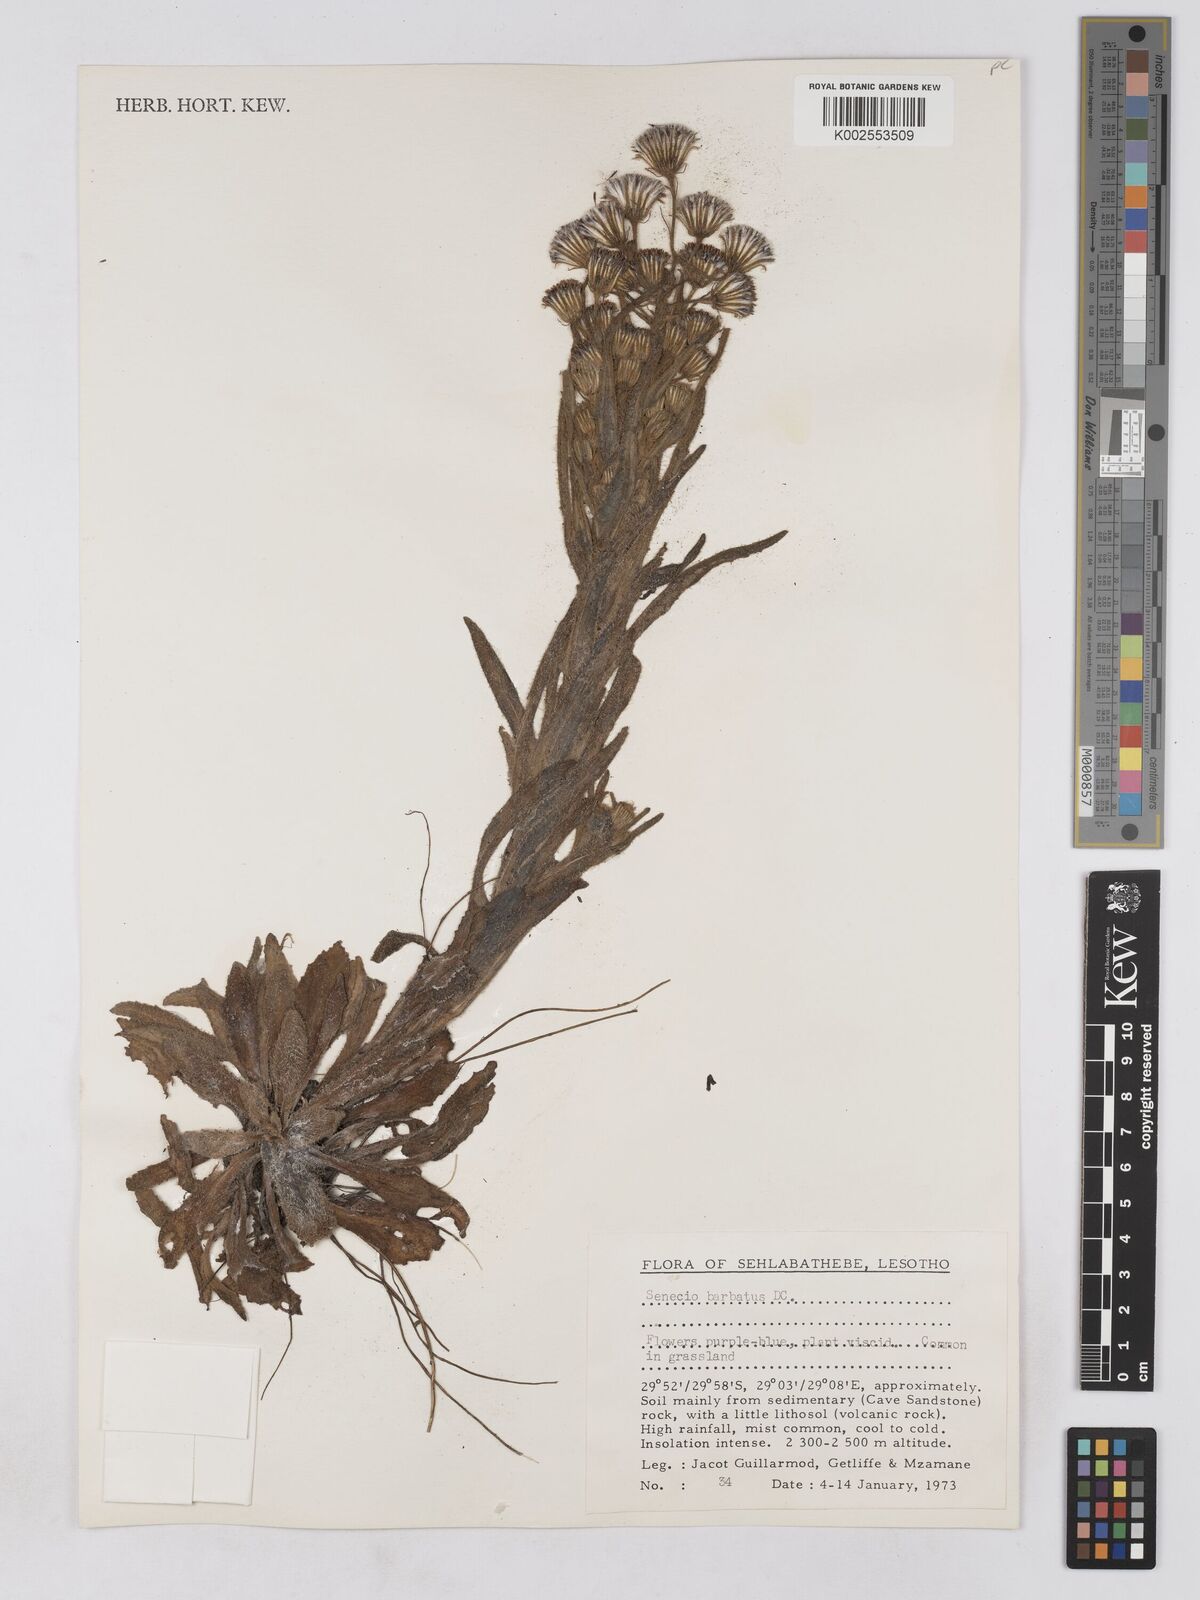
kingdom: Plantae
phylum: Tracheophyta
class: Magnoliopsida
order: Asterales
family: Asteraceae
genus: Senecio
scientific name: Senecio barbatus
